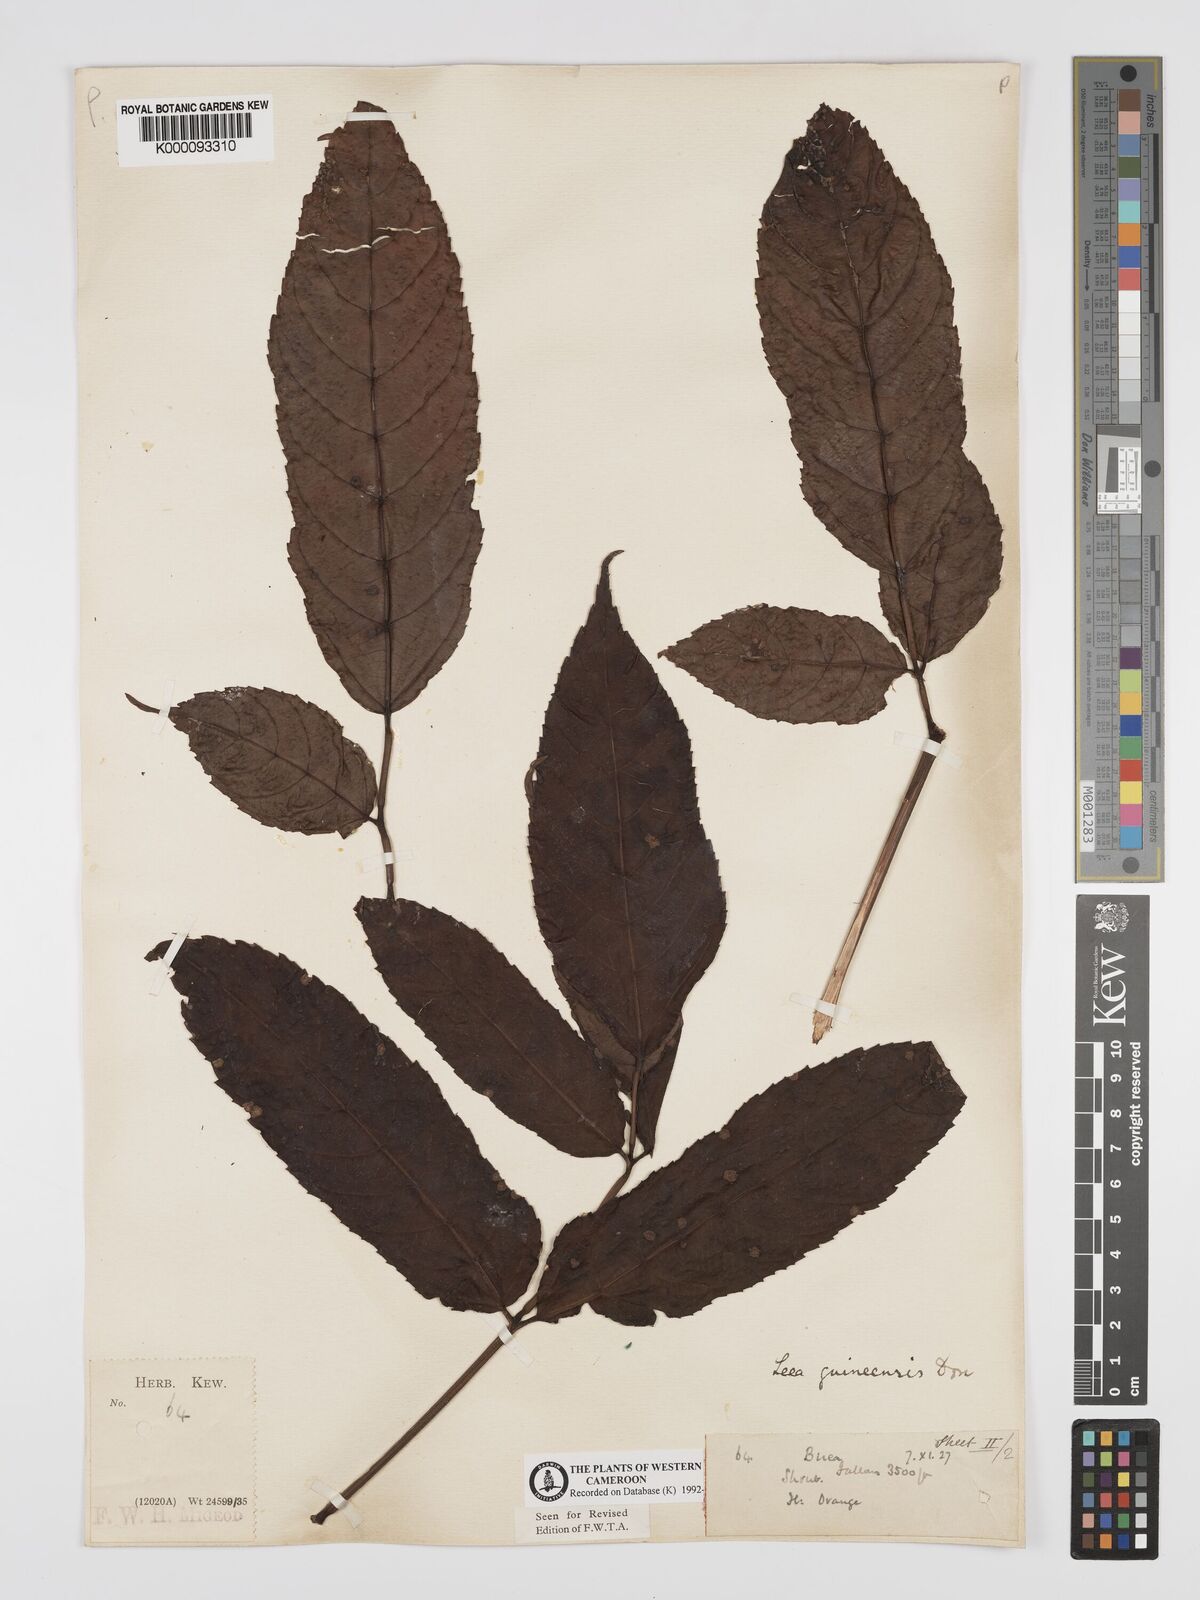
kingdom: Plantae
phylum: Tracheophyta
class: Magnoliopsida
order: Vitales
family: Vitaceae
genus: Leea
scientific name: Leea guineensis
